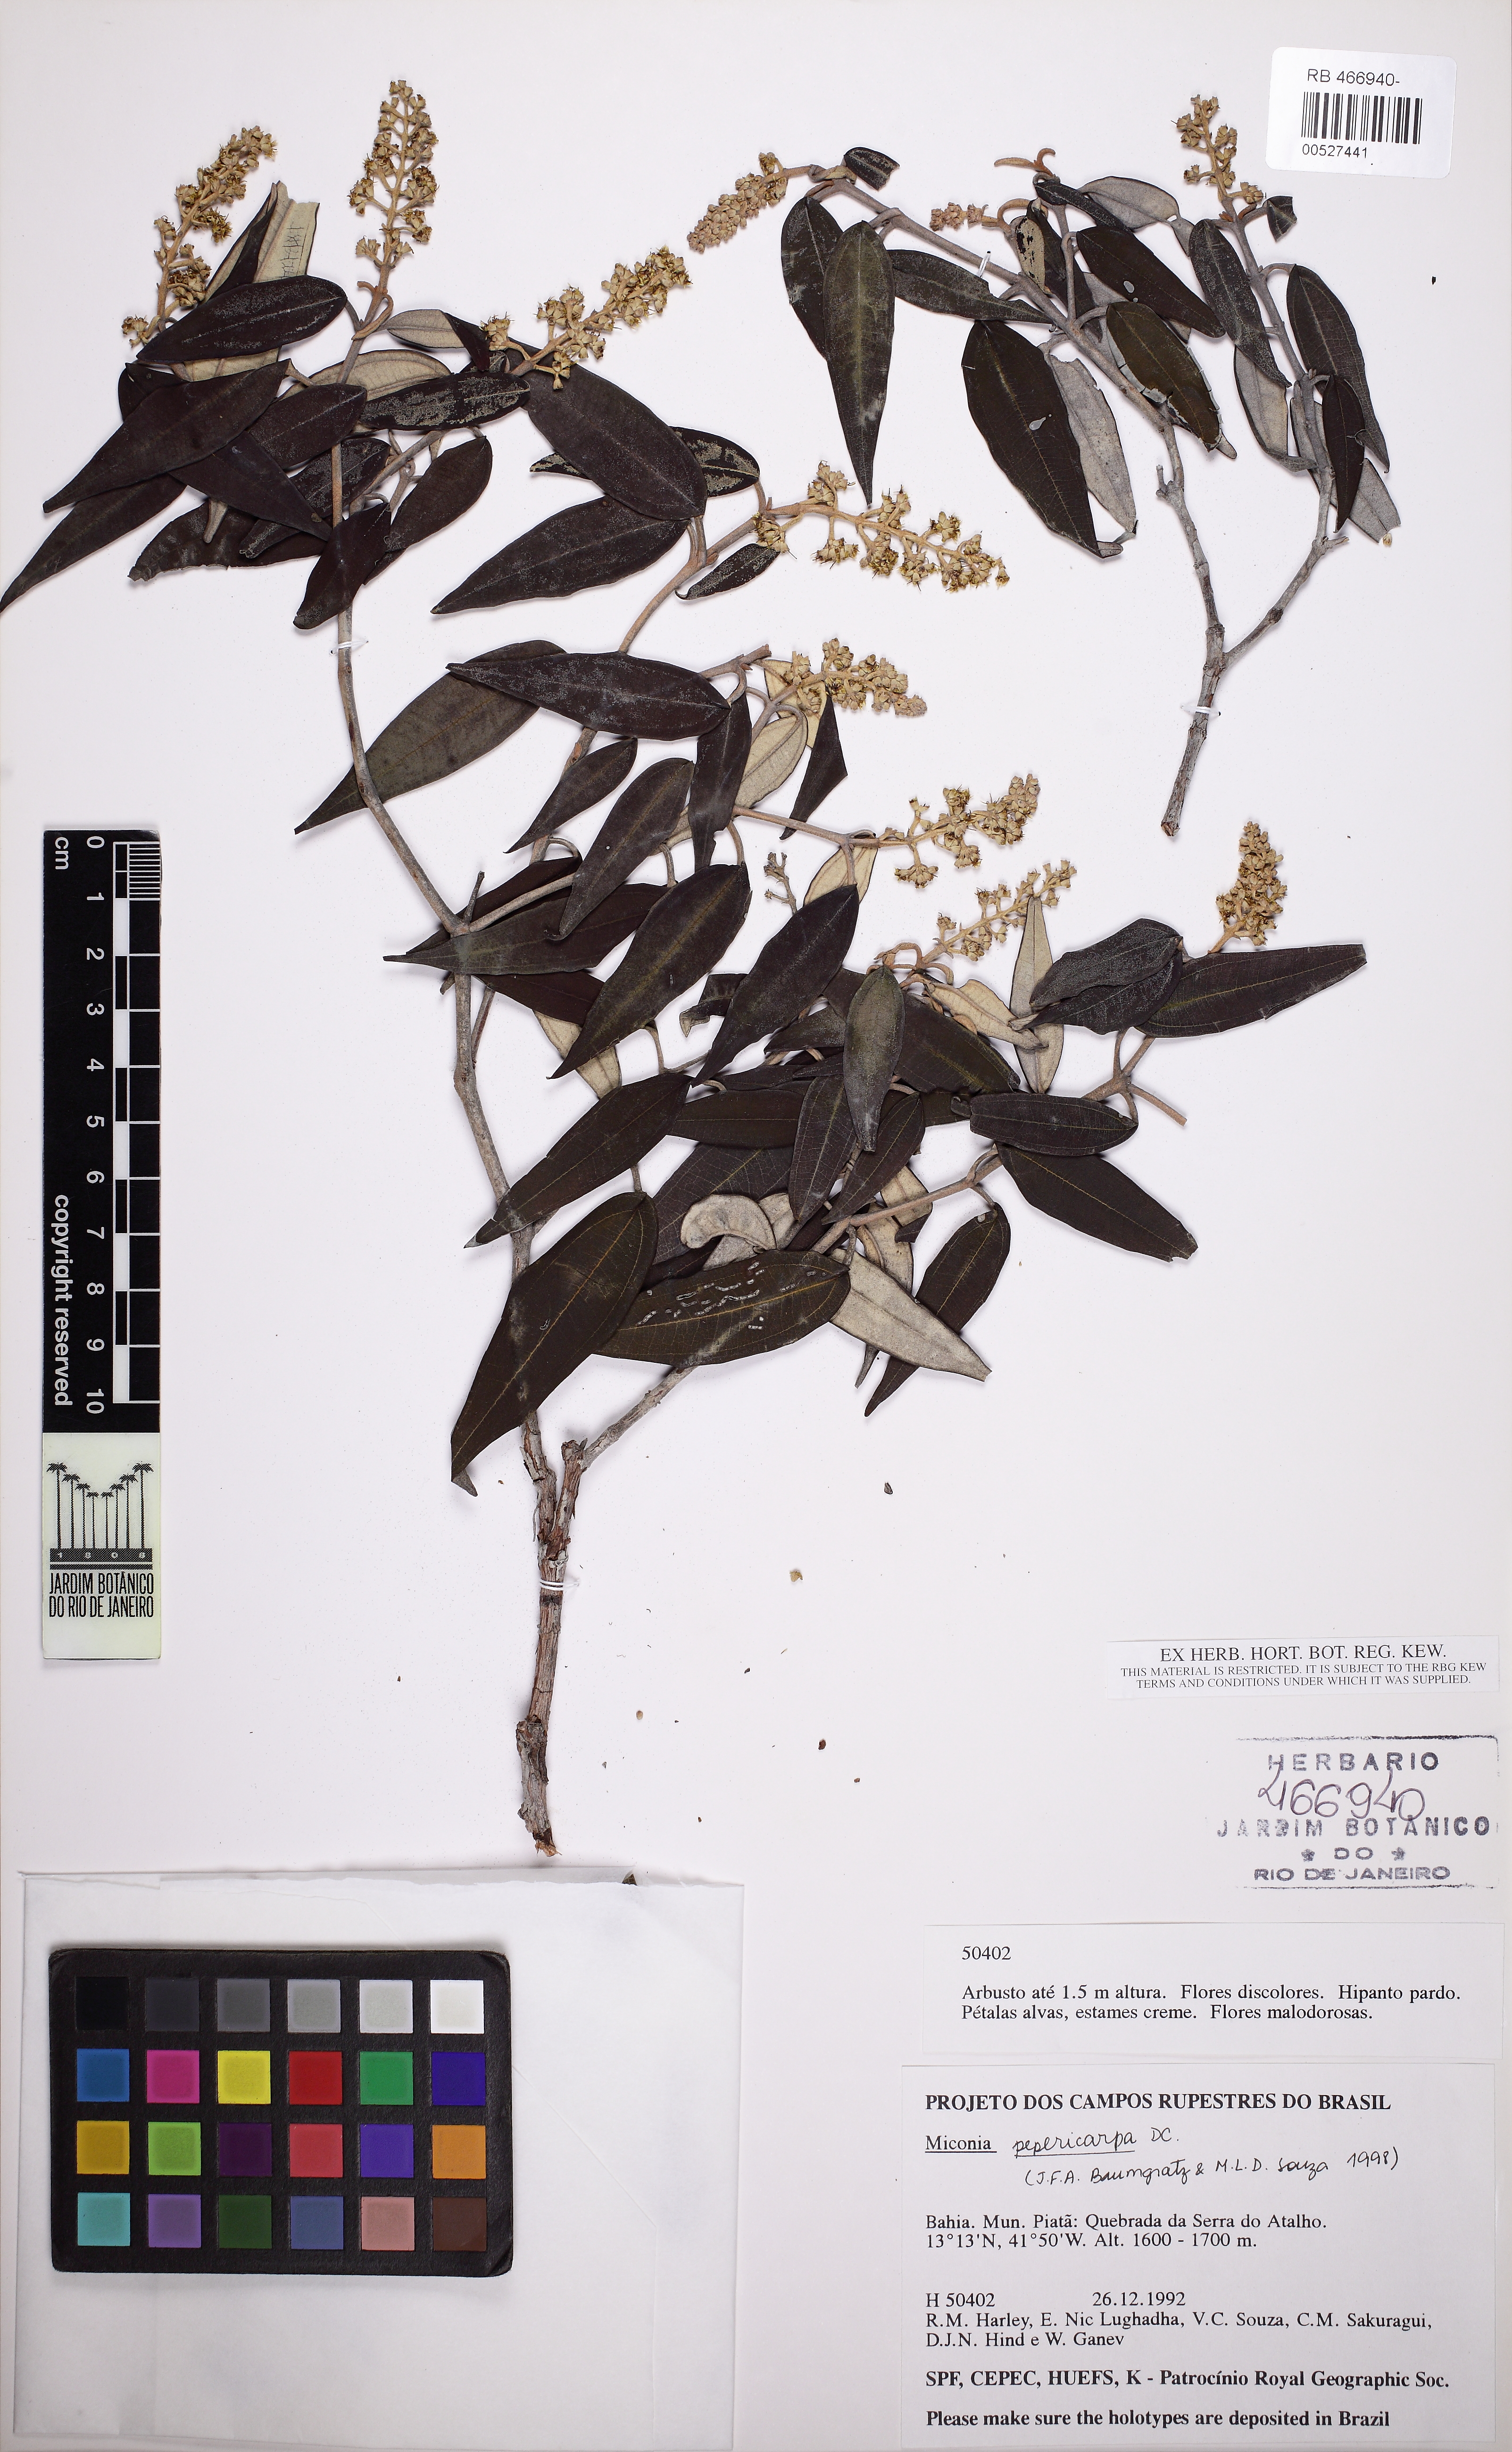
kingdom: Plantae
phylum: Tracheophyta
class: Magnoliopsida
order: Myrtales
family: Melastomataceae
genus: Miconia
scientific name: Miconia pepericarpa
